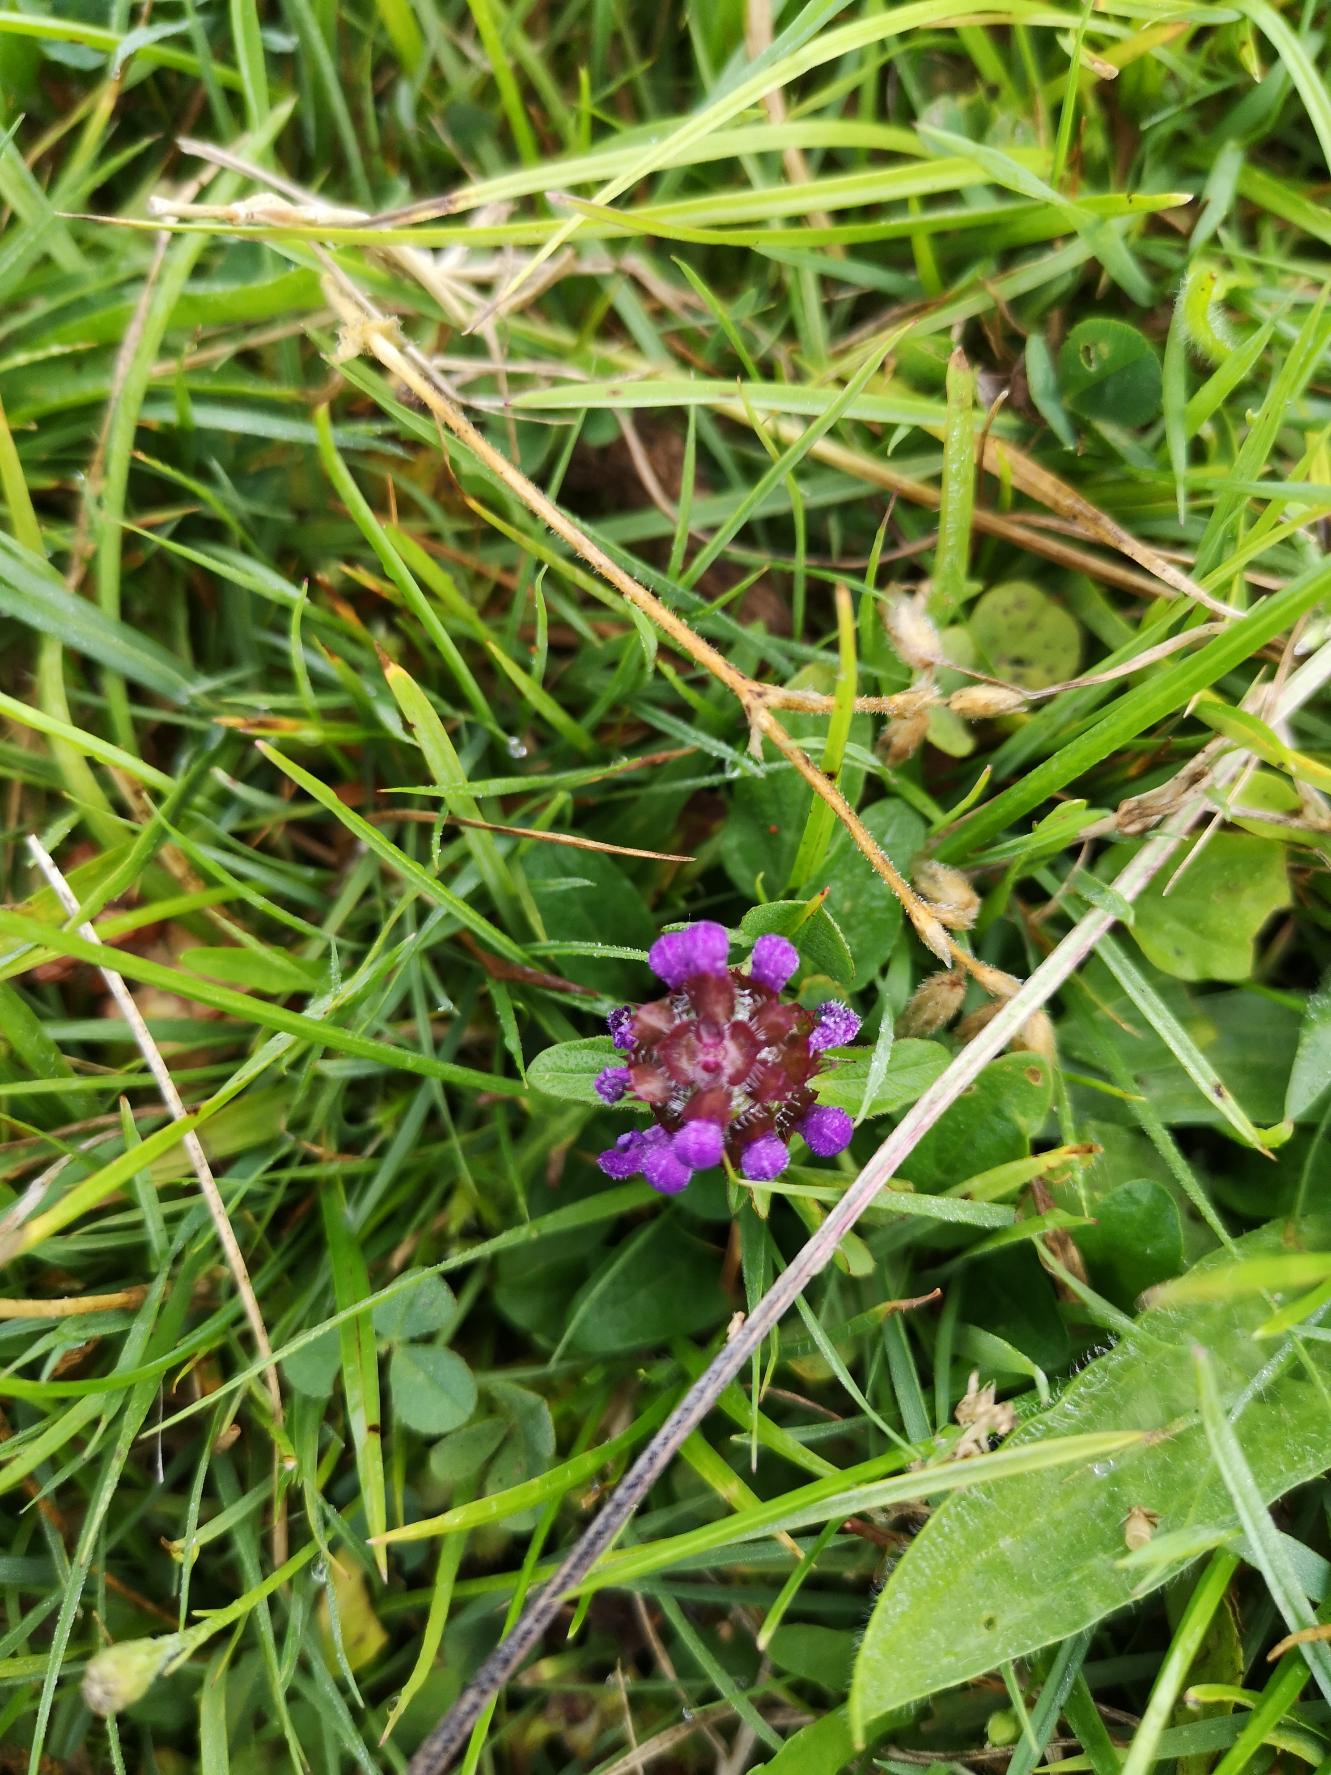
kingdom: Plantae
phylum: Tracheophyta
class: Magnoliopsida
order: Lamiales
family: Lamiaceae
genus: Prunella
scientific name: Prunella vulgaris
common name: Almindelig brunelle
